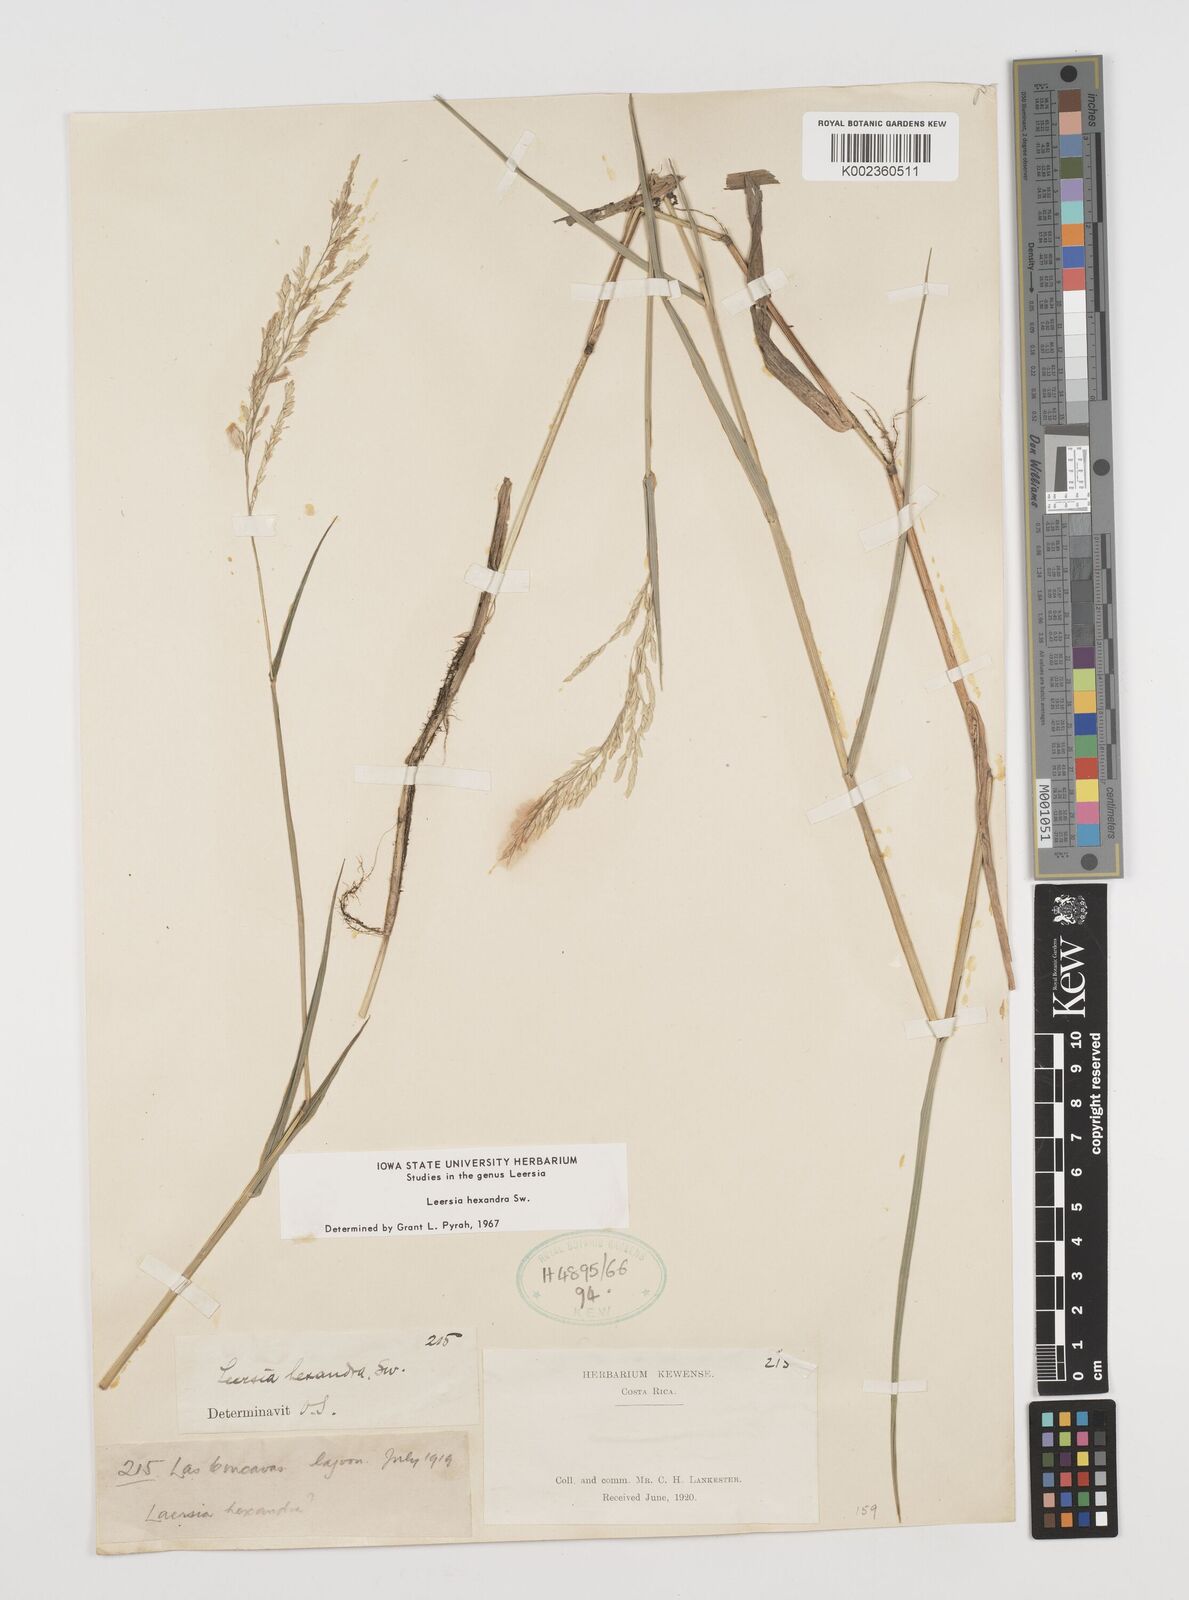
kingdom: Plantae
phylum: Tracheophyta
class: Liliopsida
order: Poales
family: Poaceae
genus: Leersia
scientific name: Leersia hexandra
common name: Southern cut grass
